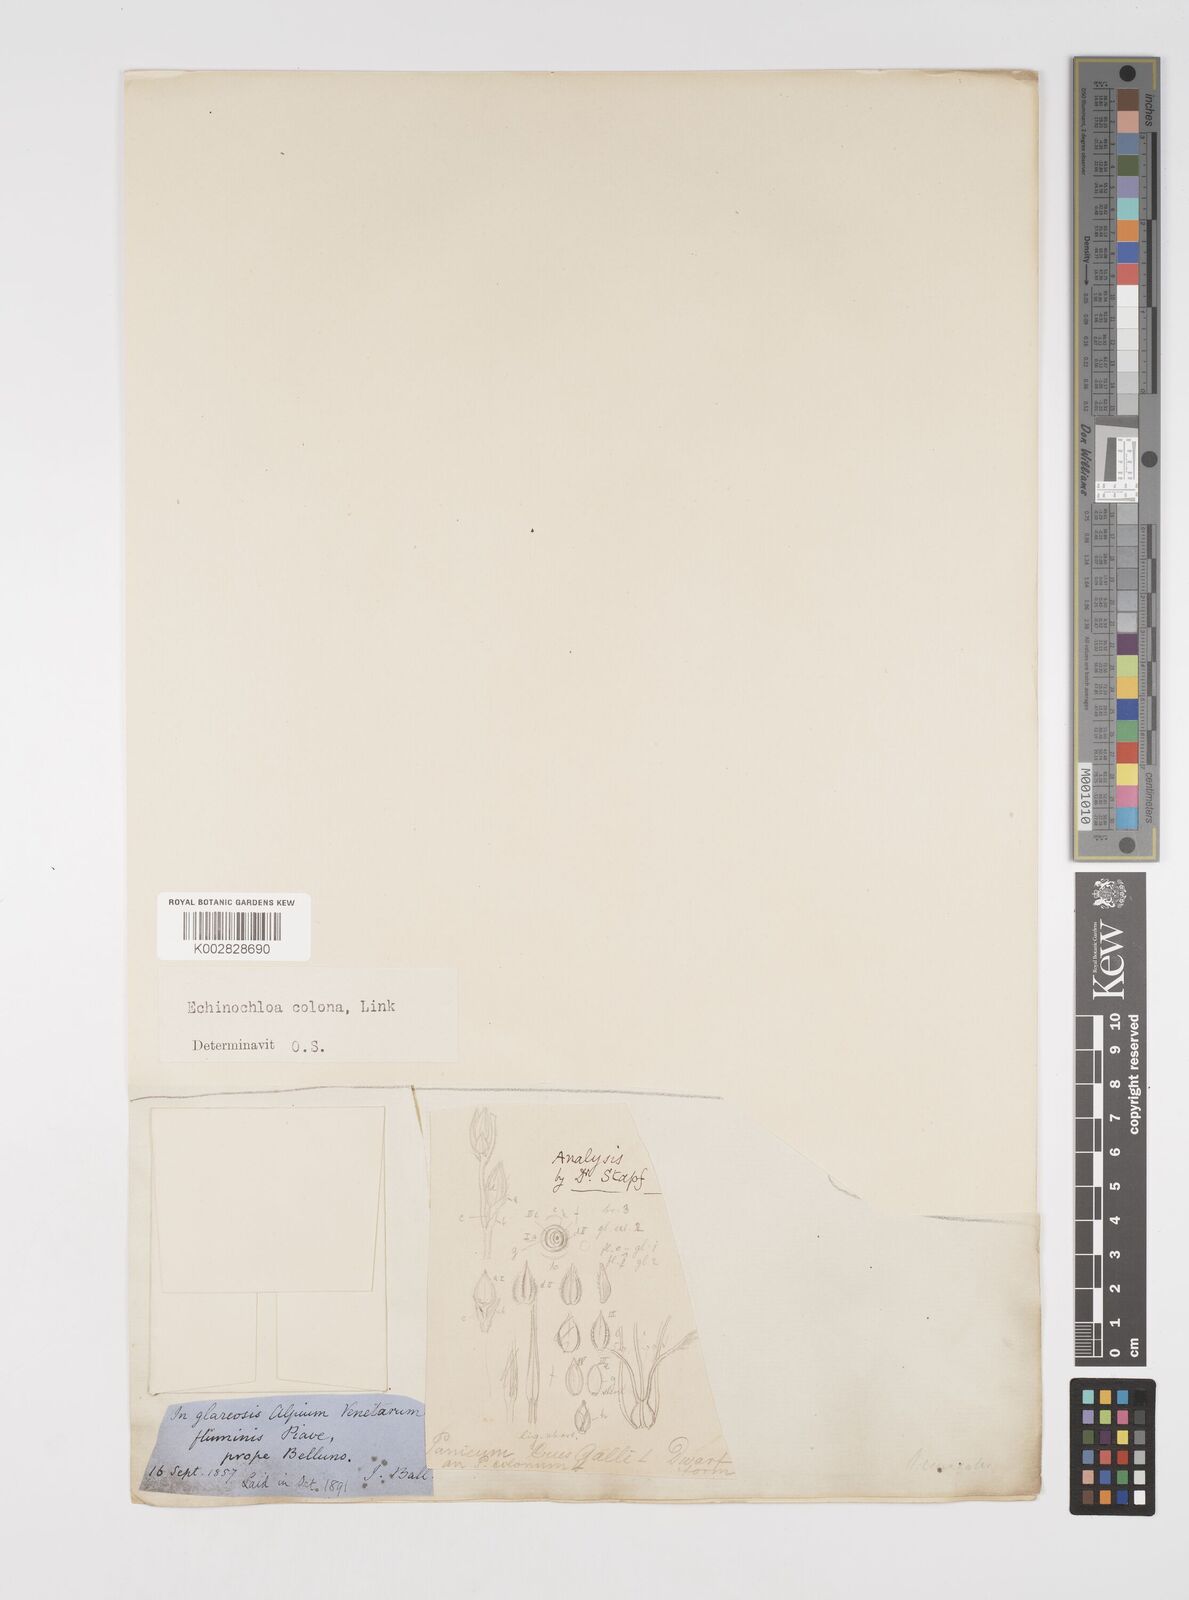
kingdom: Plantae
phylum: Tracheophyta
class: Liliopsida
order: Poales
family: Poaceae
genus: Echinochloa
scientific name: Echinochloa colonum
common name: Jungle rice
